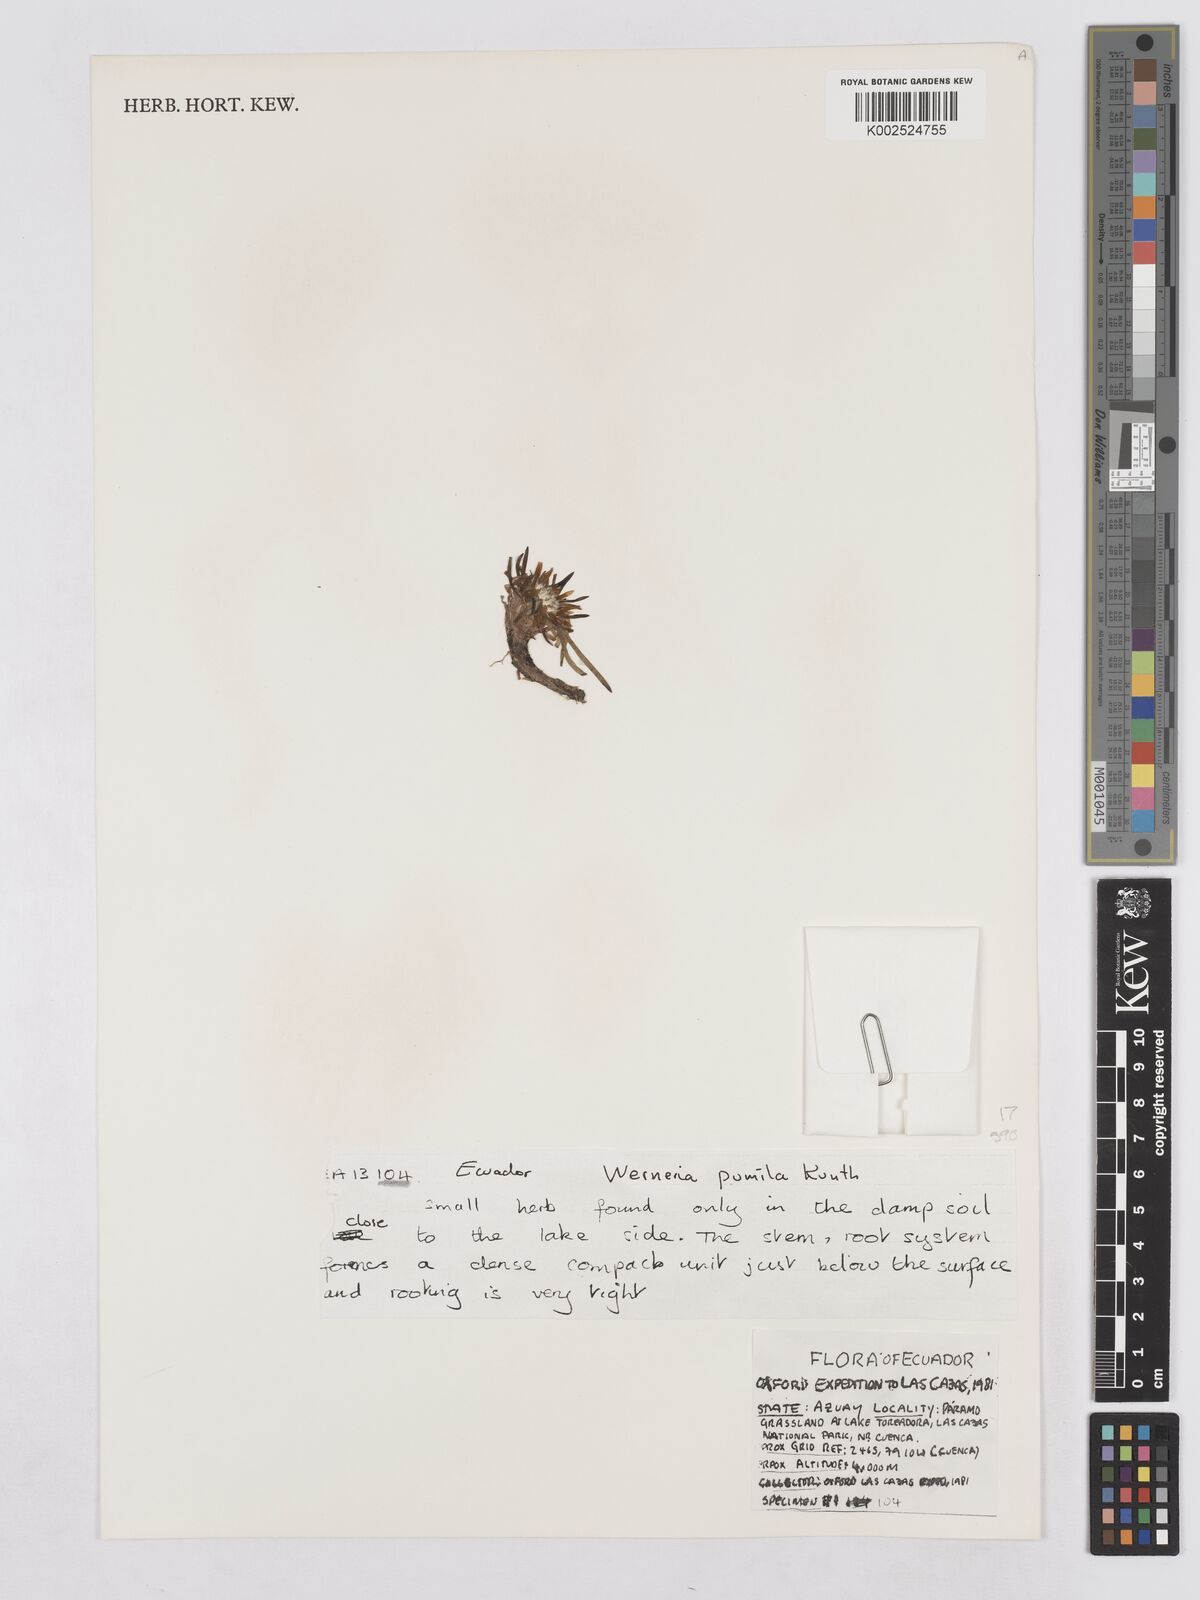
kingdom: Plantae
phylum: Tracheophyta
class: Magnoliopsida
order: Asterales
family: Asteraceae
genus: Rockhausenia
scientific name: Rockhausenia pumila
